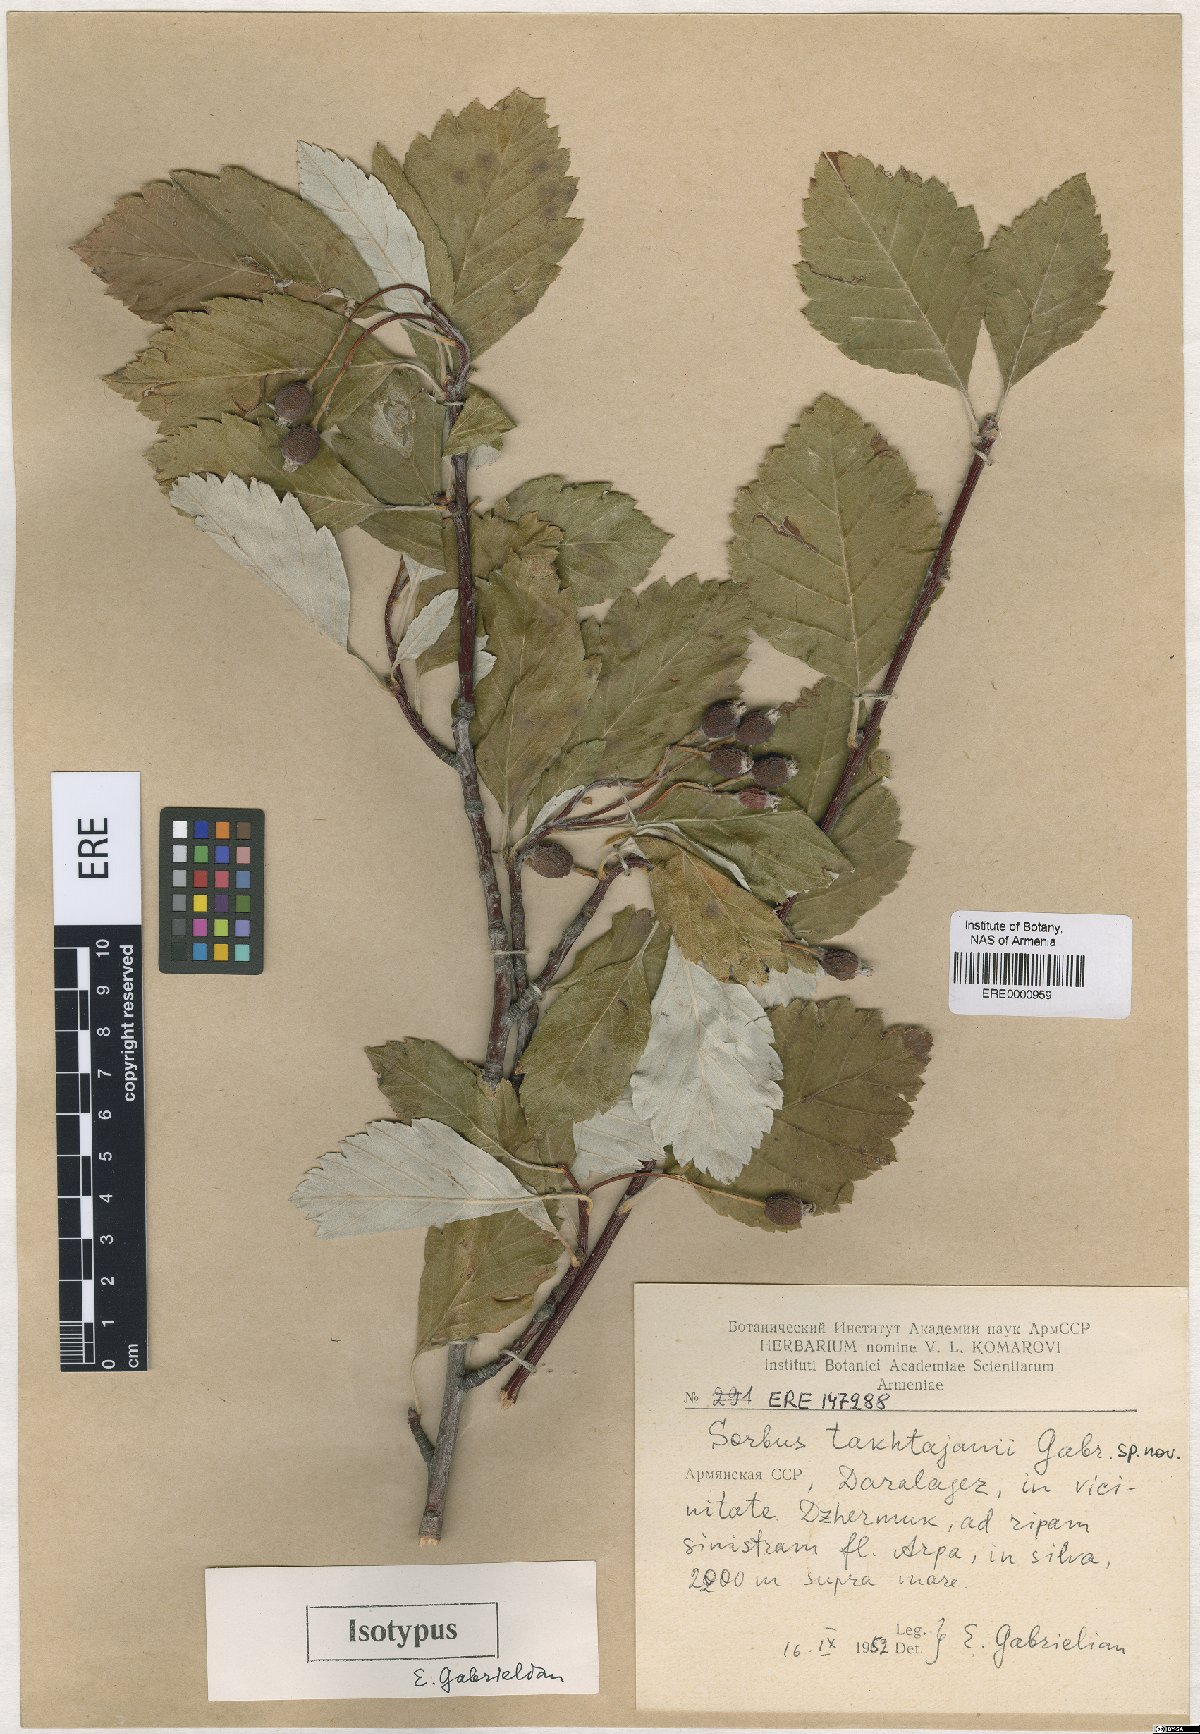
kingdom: Plantae
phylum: Tracheophyta
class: Magnoliopsida
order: Rosales
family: Rosaceae
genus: Hedlundia
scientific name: Hedlundia takhtajanii
